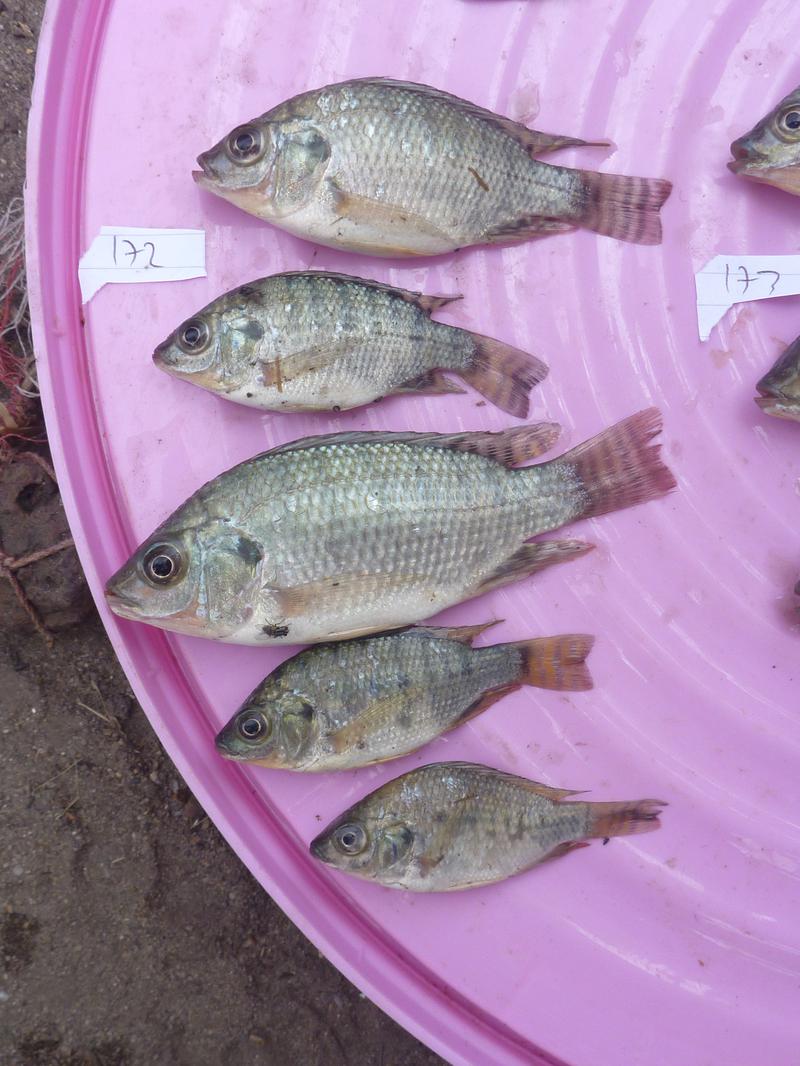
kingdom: Animalia
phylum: Chordata
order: Perciformes
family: Cichlidae
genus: Oreochromis
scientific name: Oreochromis niloticus
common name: Nile tilapia
